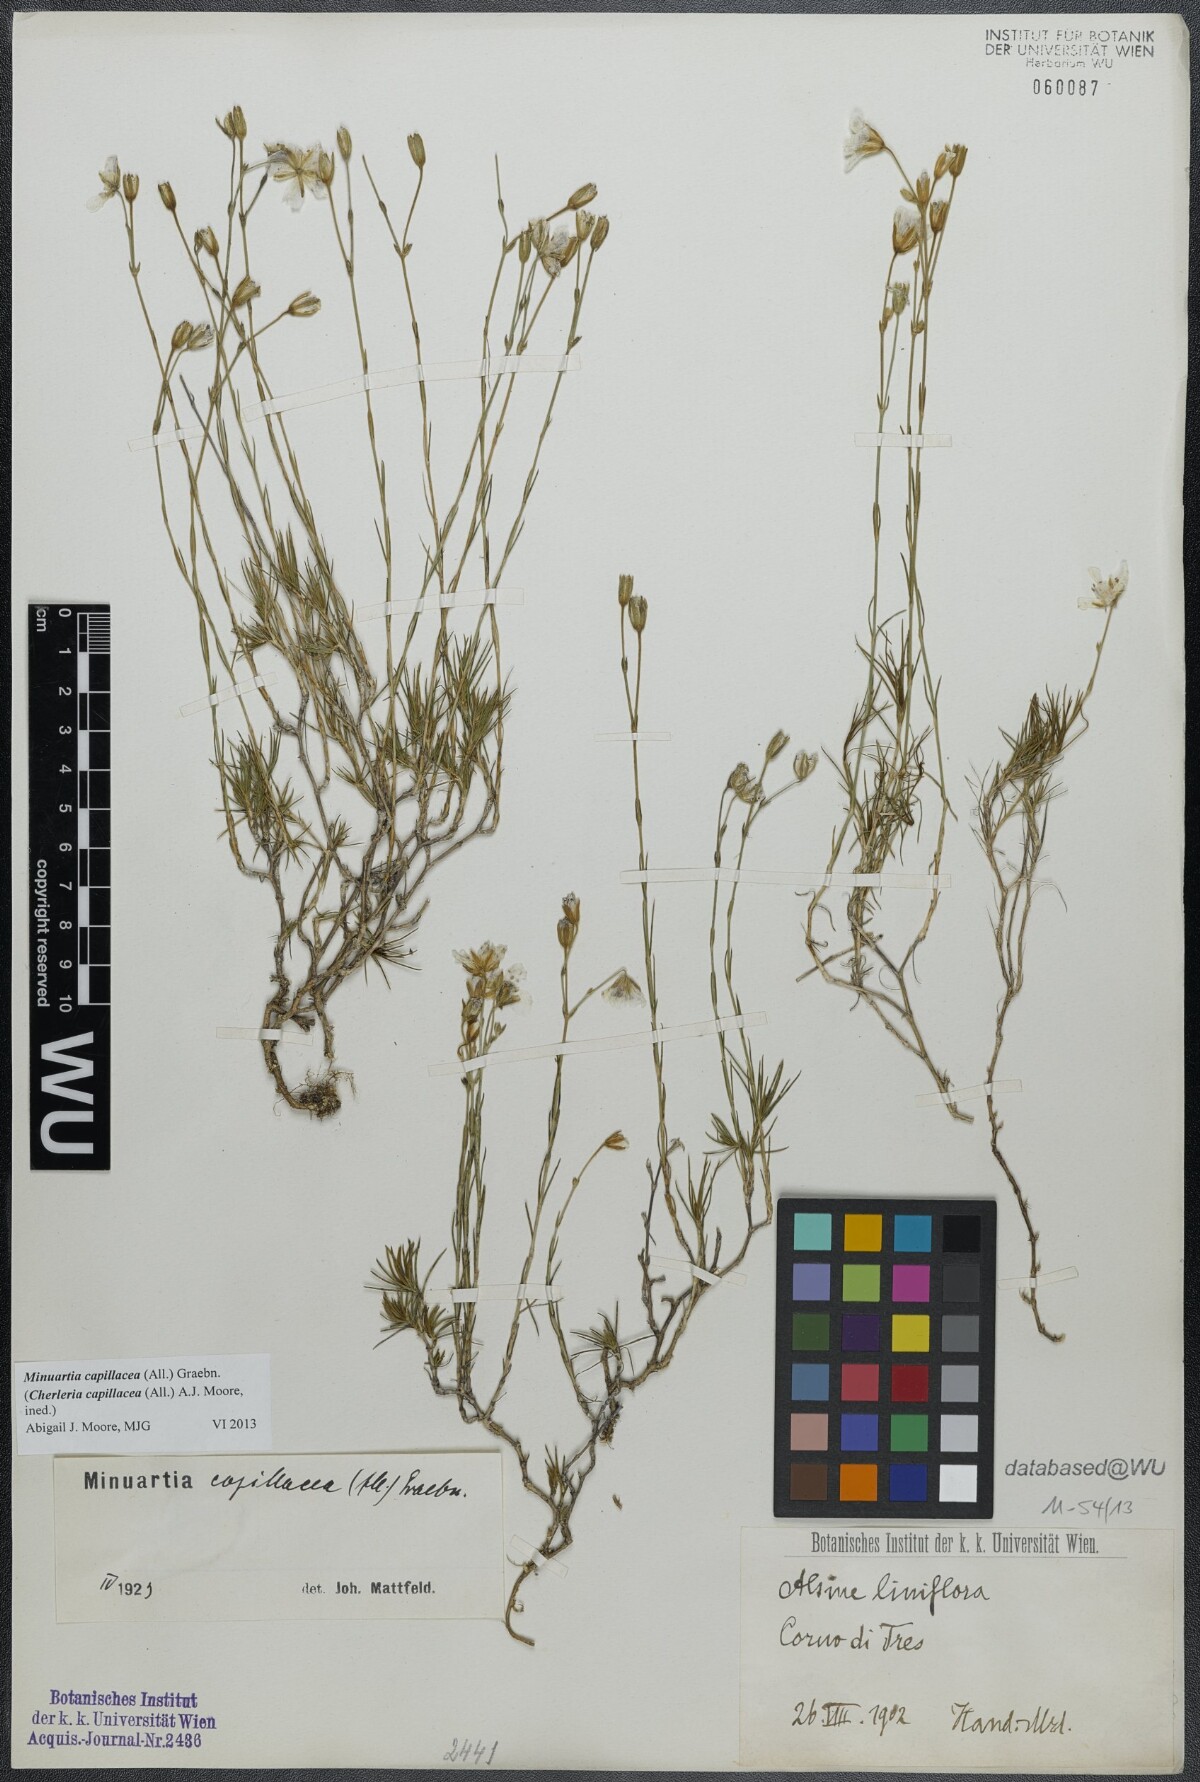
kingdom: Plantae
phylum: Tracheophyta
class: Magnoliopsida
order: Caryophyllales
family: Caryophyllaceae
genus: Cherleria
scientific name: Cherleria capillacea
